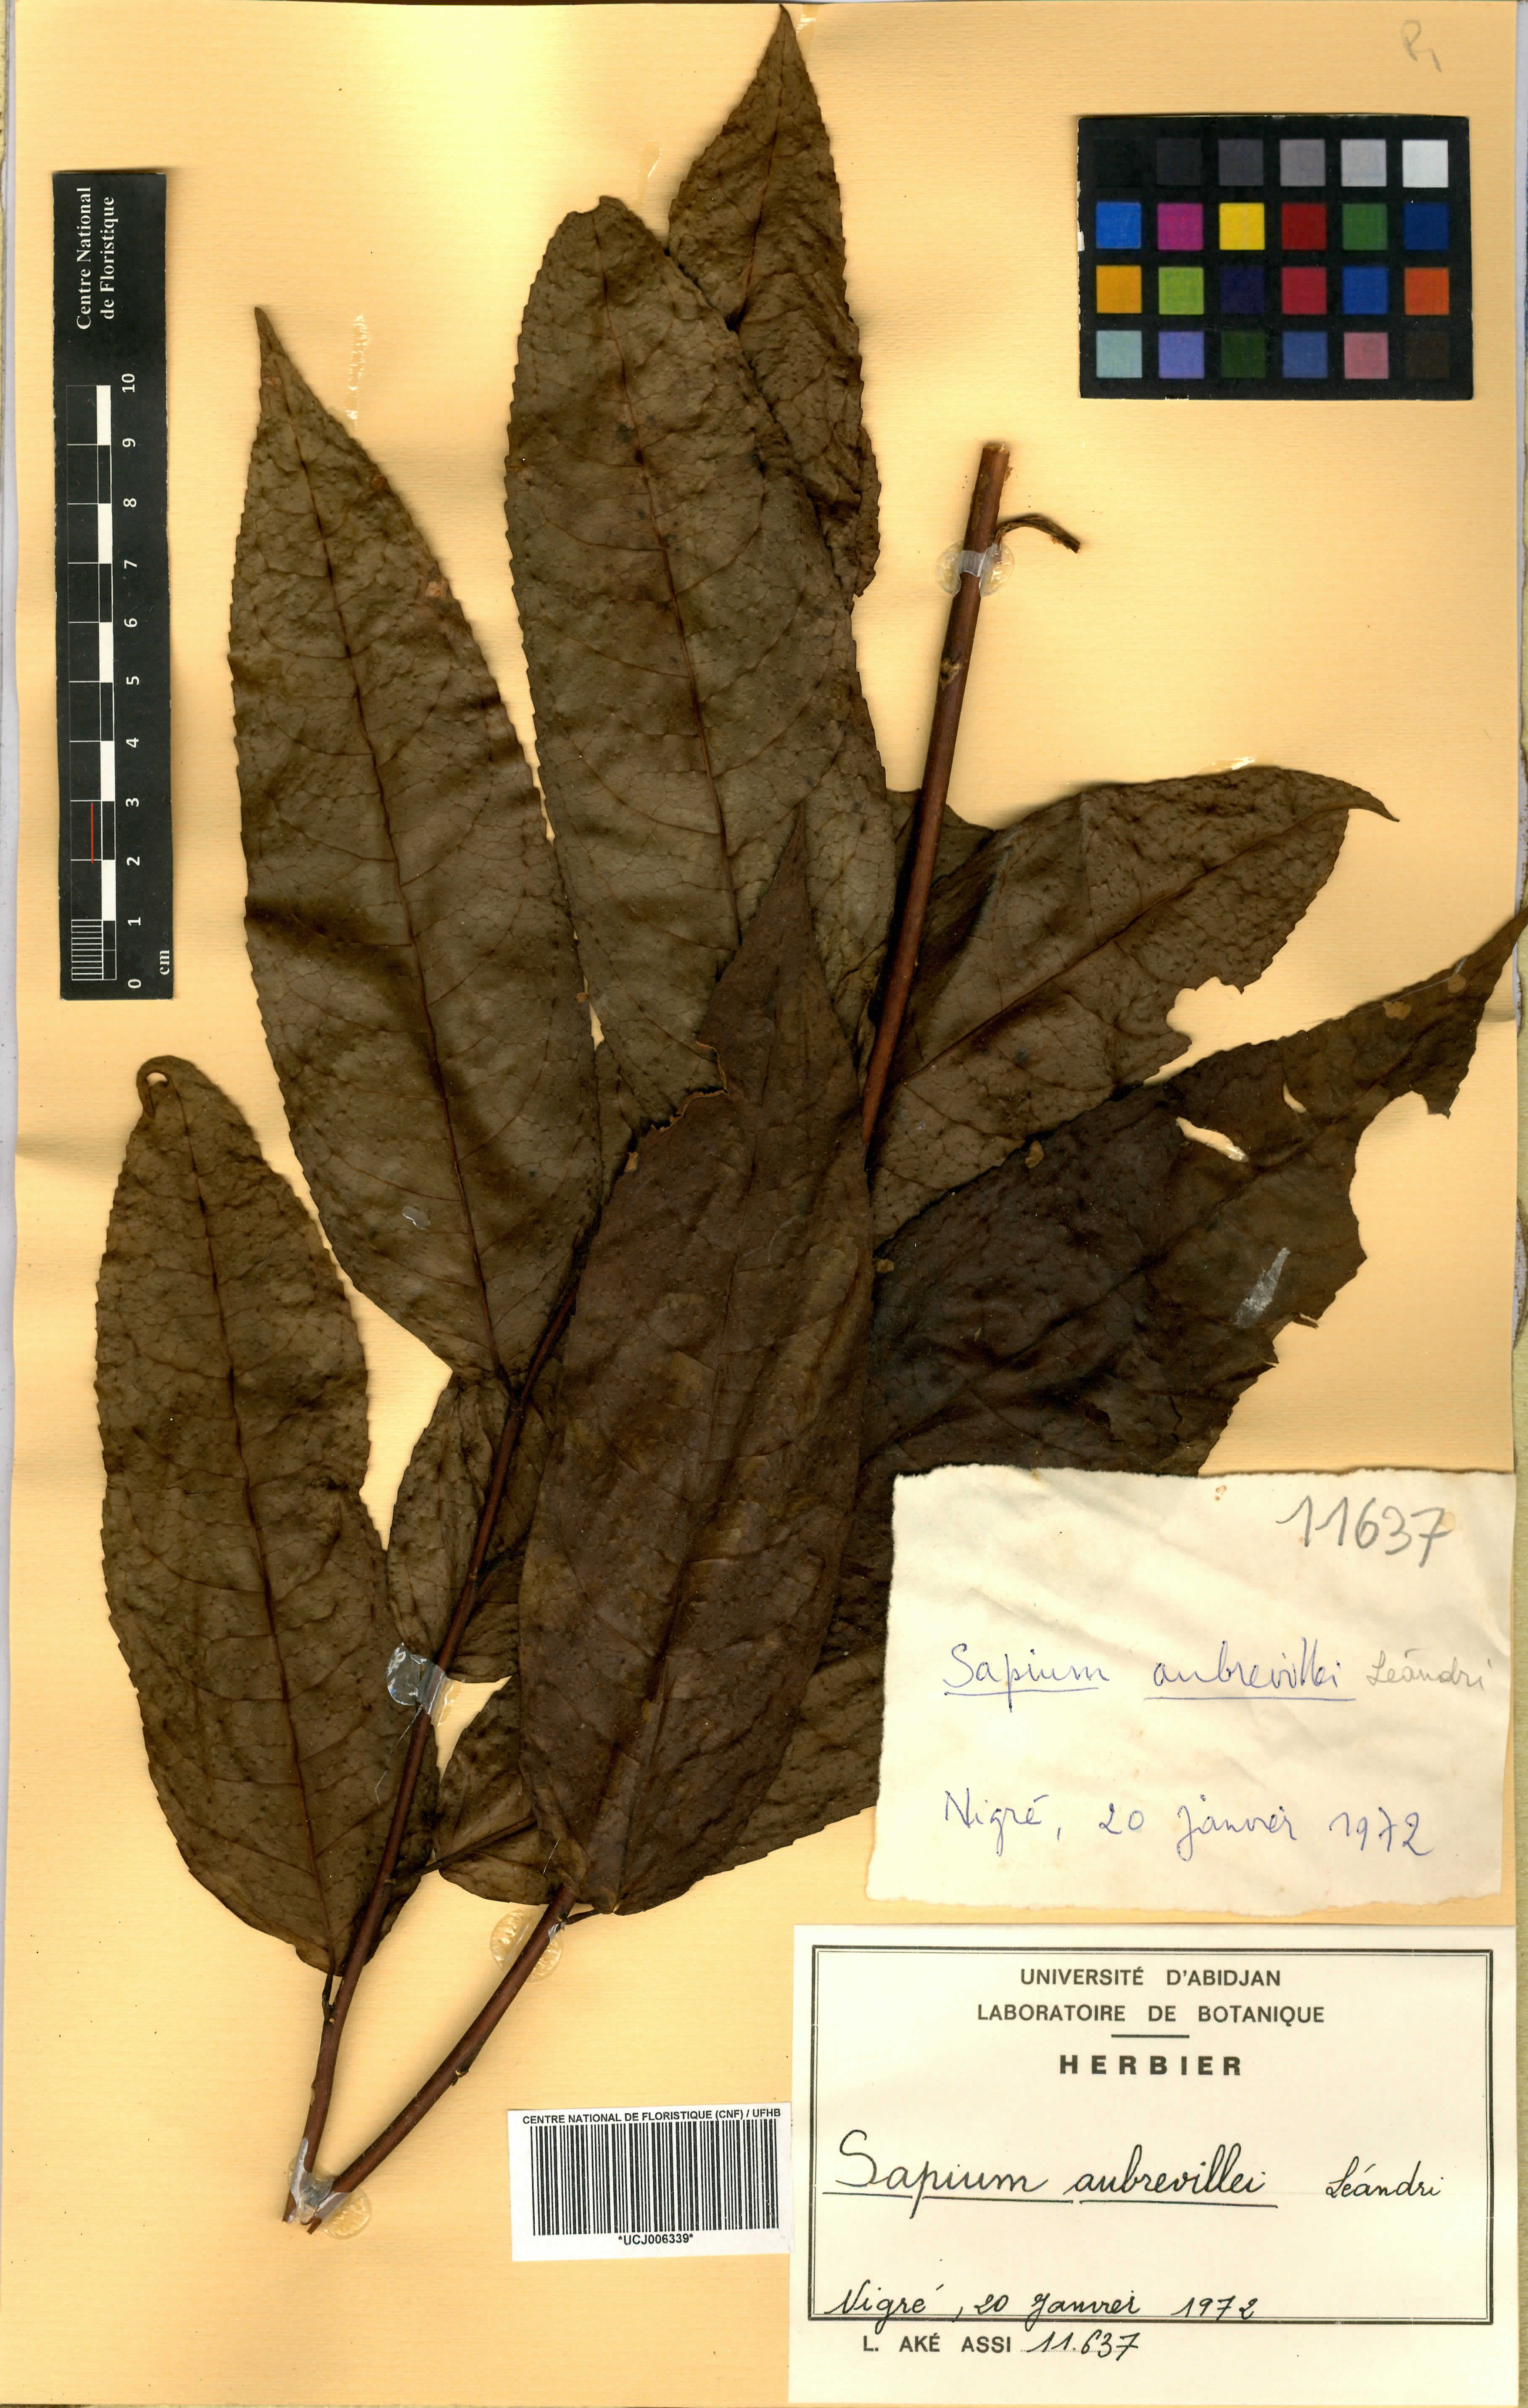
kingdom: Plantae
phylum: Tracheophyta
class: Magnoliopsida
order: Malpighiales
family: Euphorbiaceae
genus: Shirakiopsis
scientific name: Shirakiopsis aubrevillei
